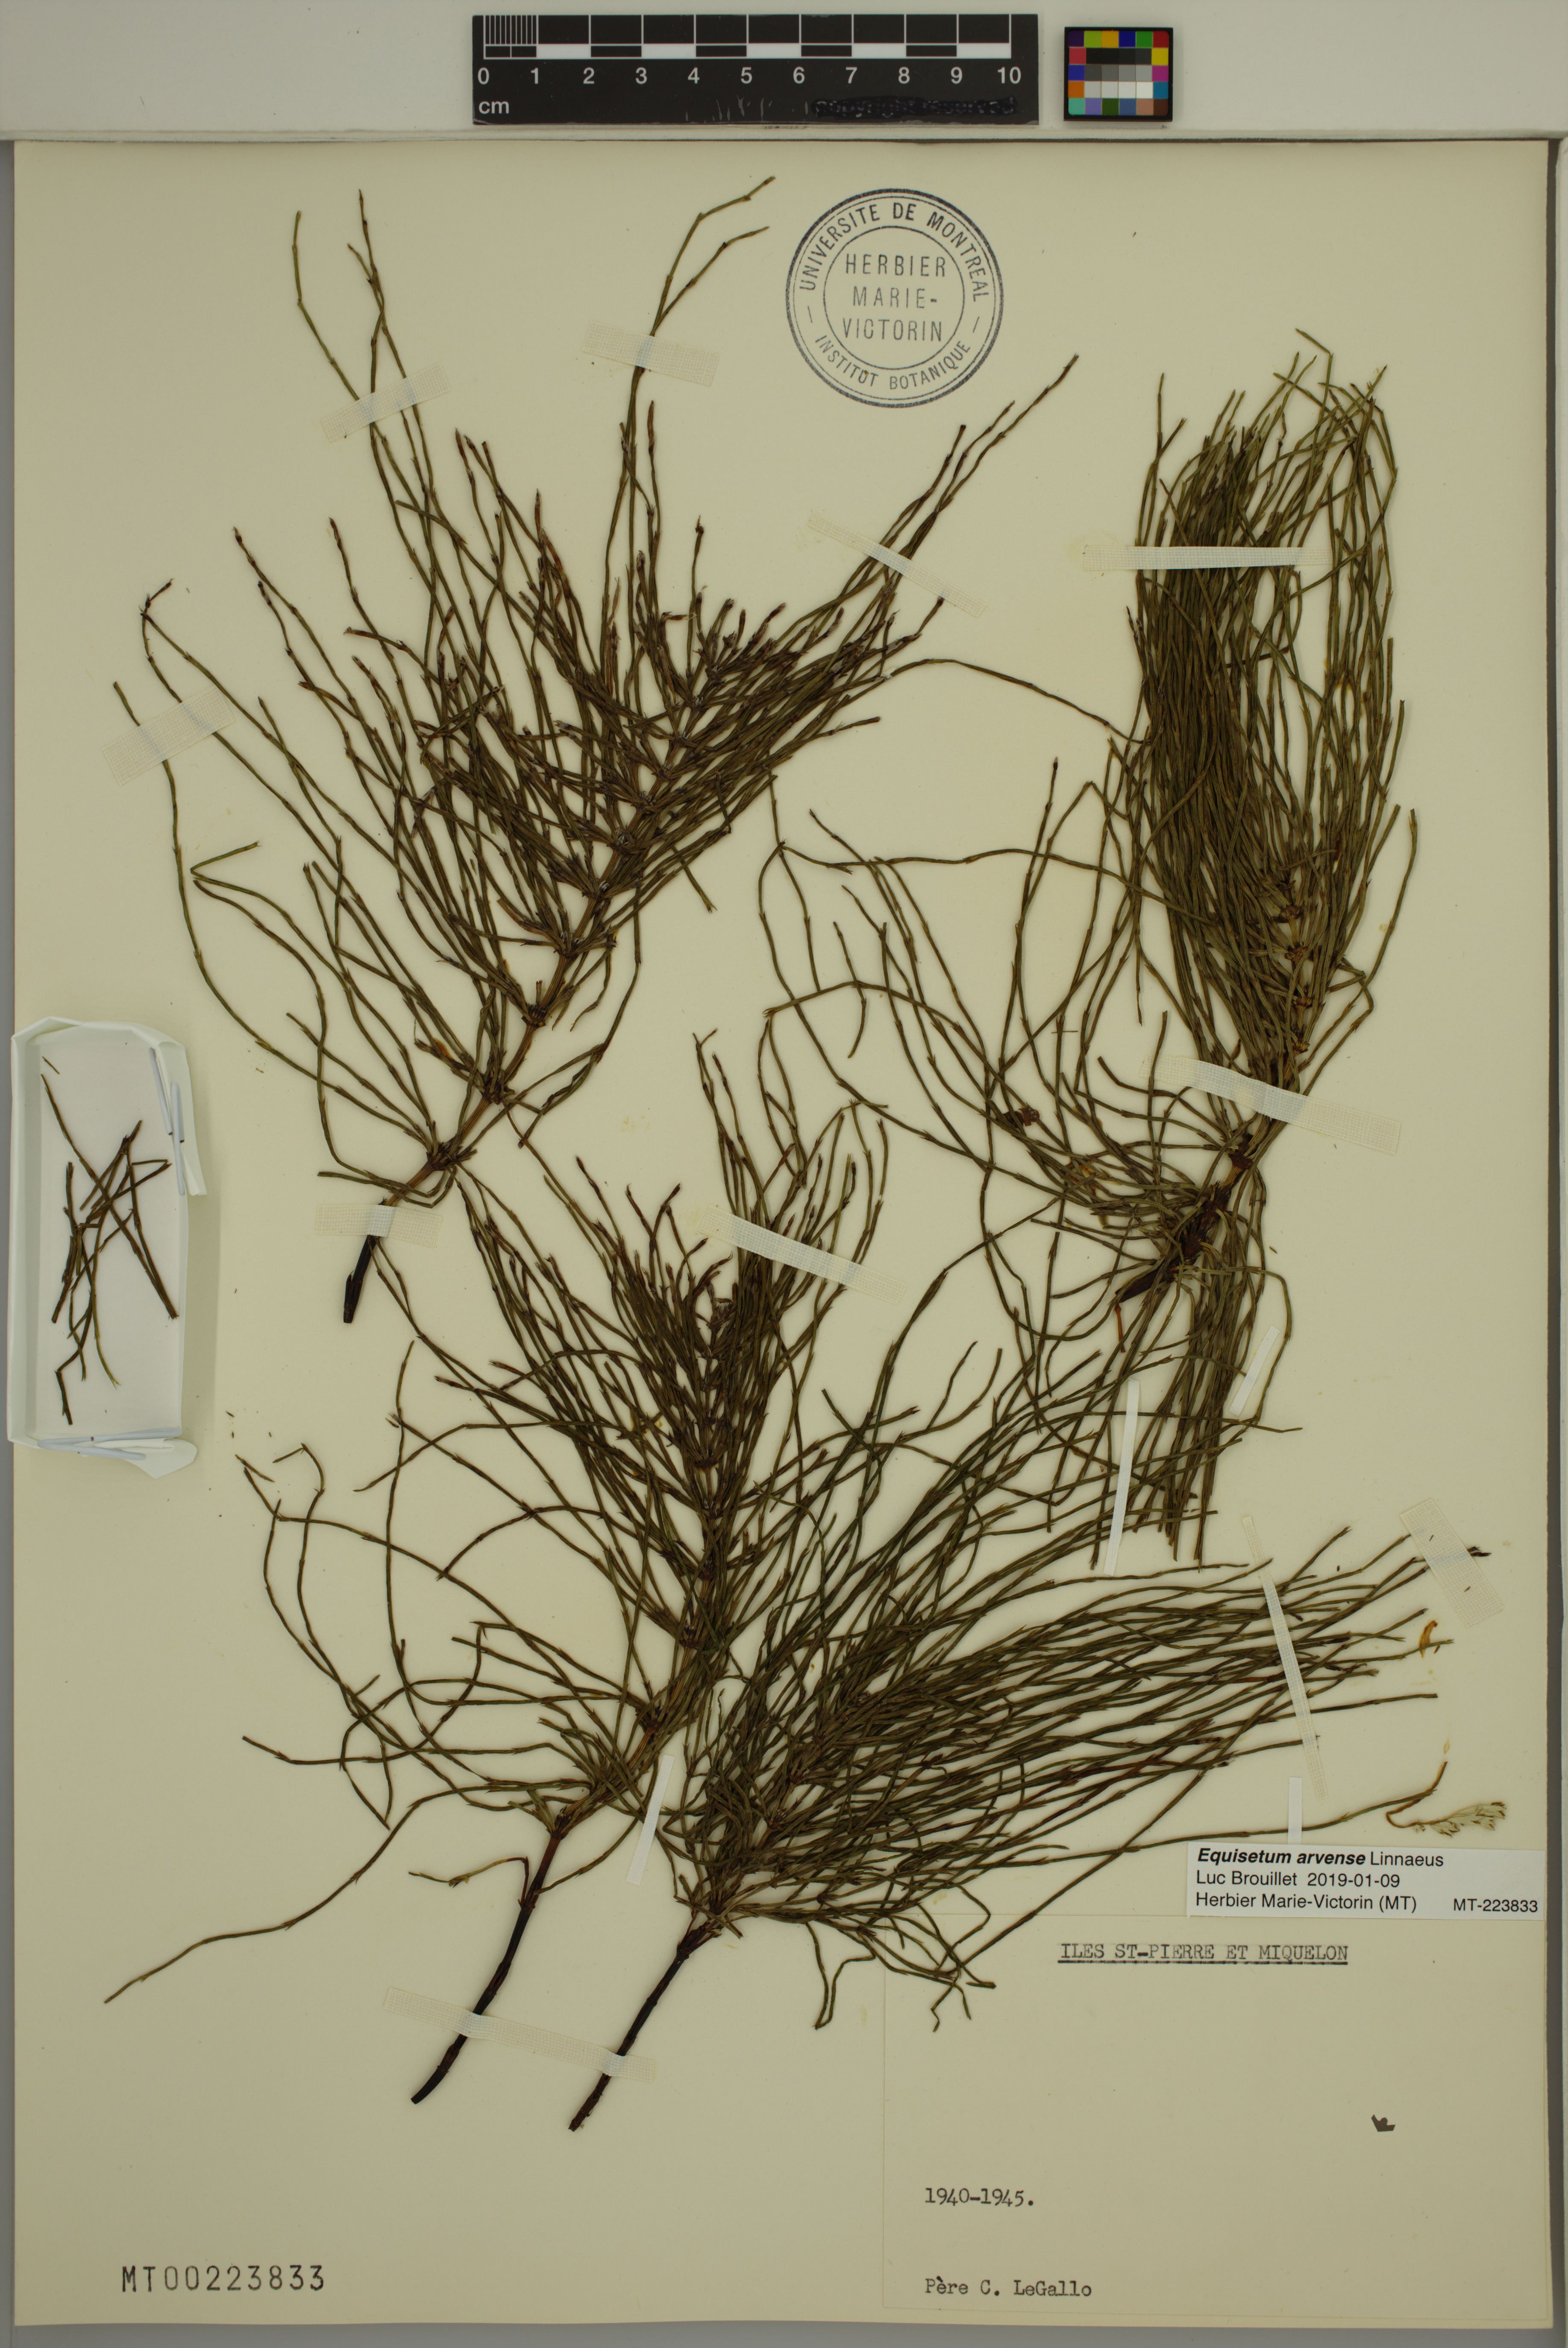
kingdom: Plantae
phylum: Tracheophyta
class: Polypodiopsida
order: Equisetales
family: Equisetaceae
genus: Equisetum
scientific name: Equisetum arvense
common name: Field horsetail
